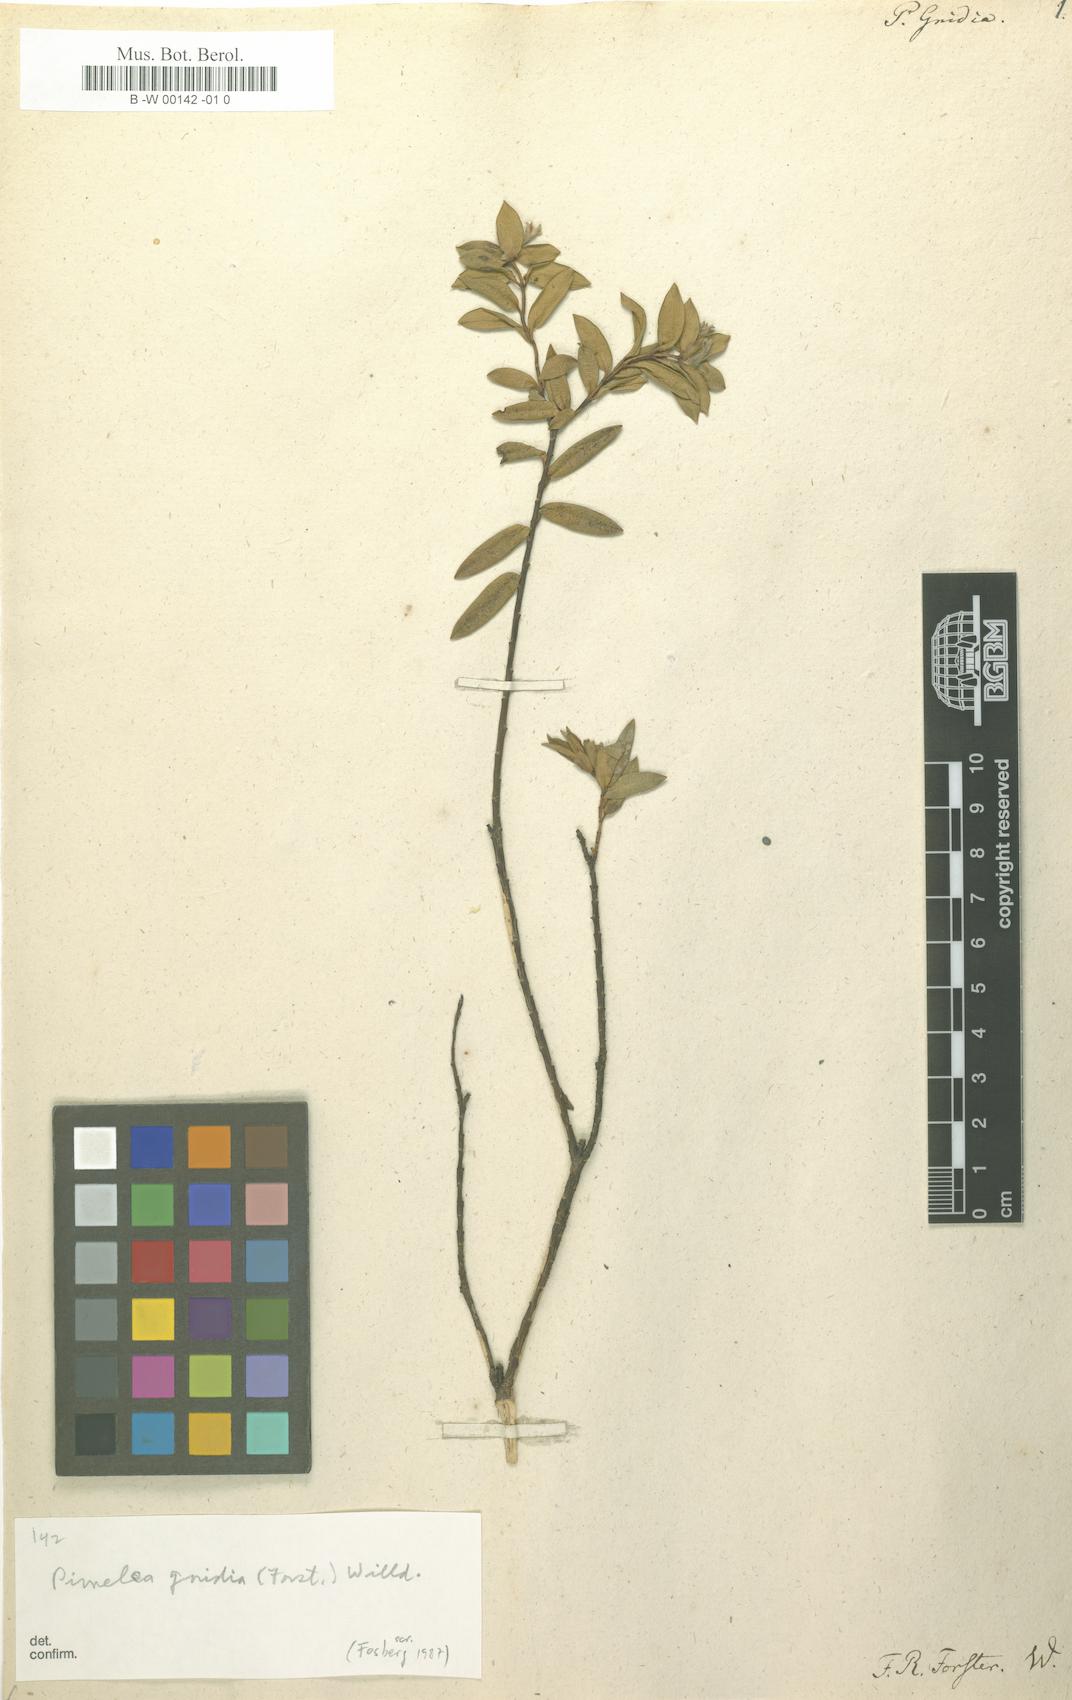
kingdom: Plantae
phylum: Tracheophyta
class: Magnoliopsida
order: Malvales
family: Thymelaeaceae
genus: Pimelea
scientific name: Pimelea gnidia
